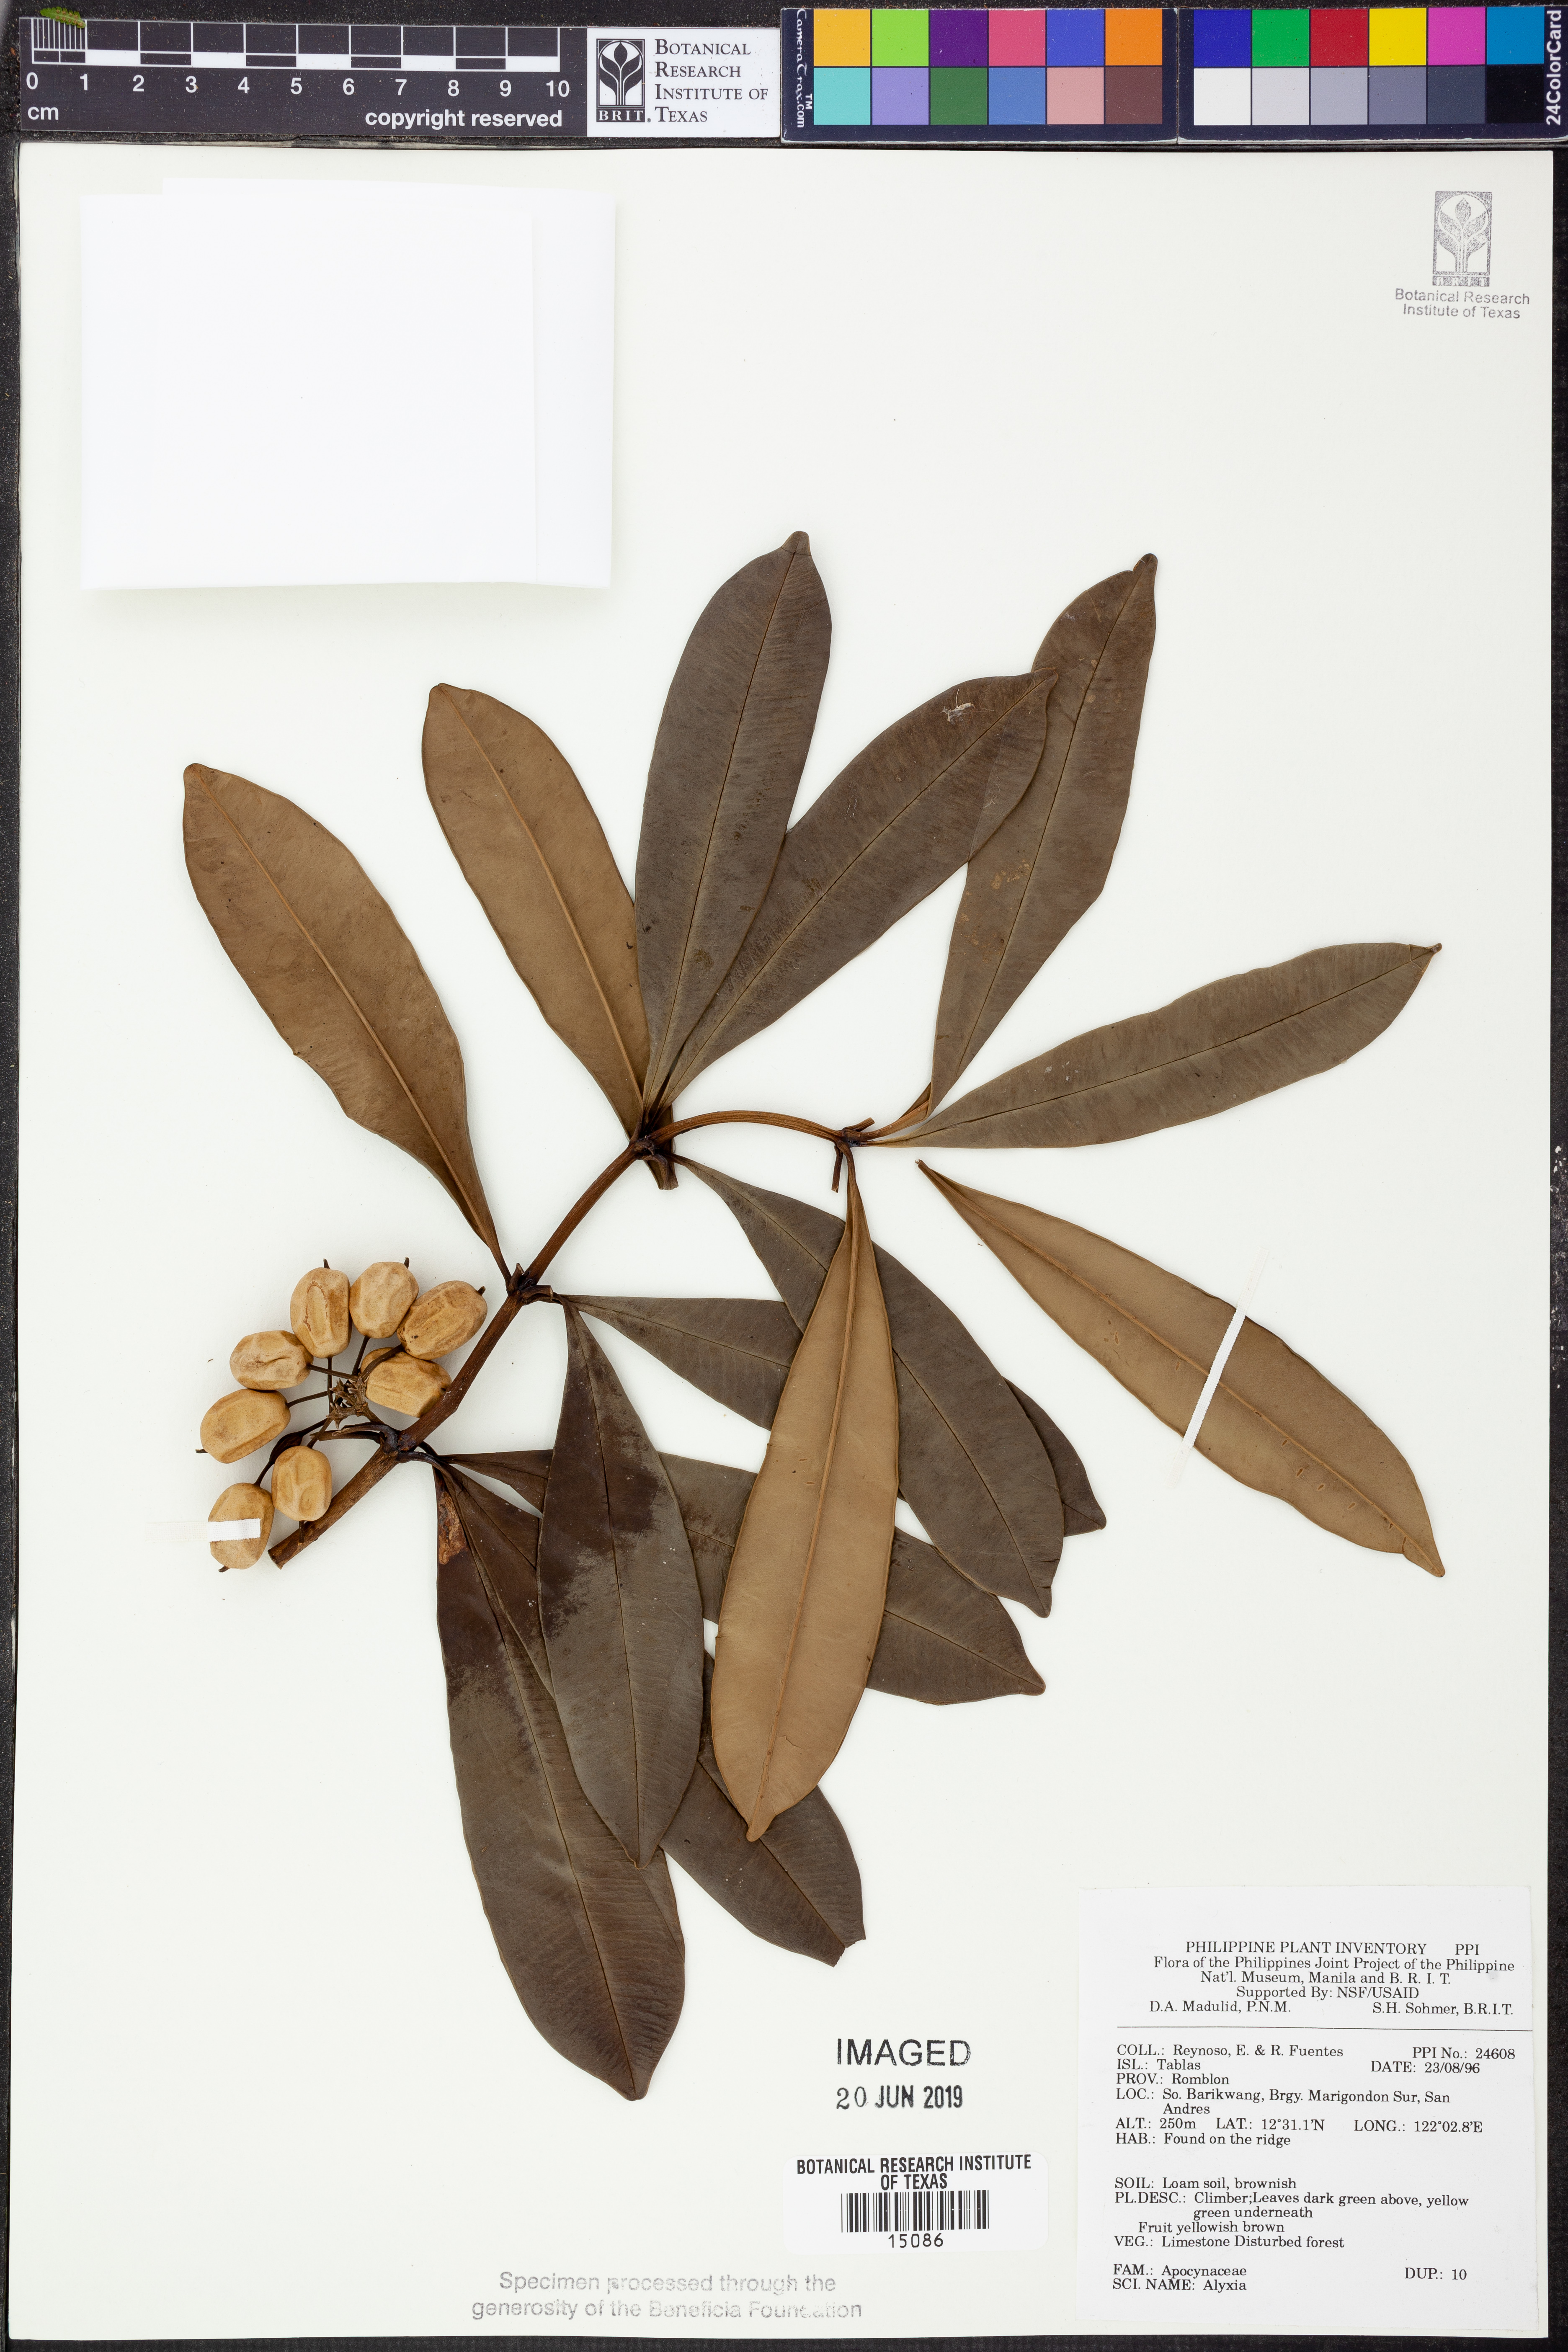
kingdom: Plantae
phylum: Tracheophyta
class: Magnoliopsida
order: Gentianales
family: Apocynaceae
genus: Alyxia
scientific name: Alyxia
